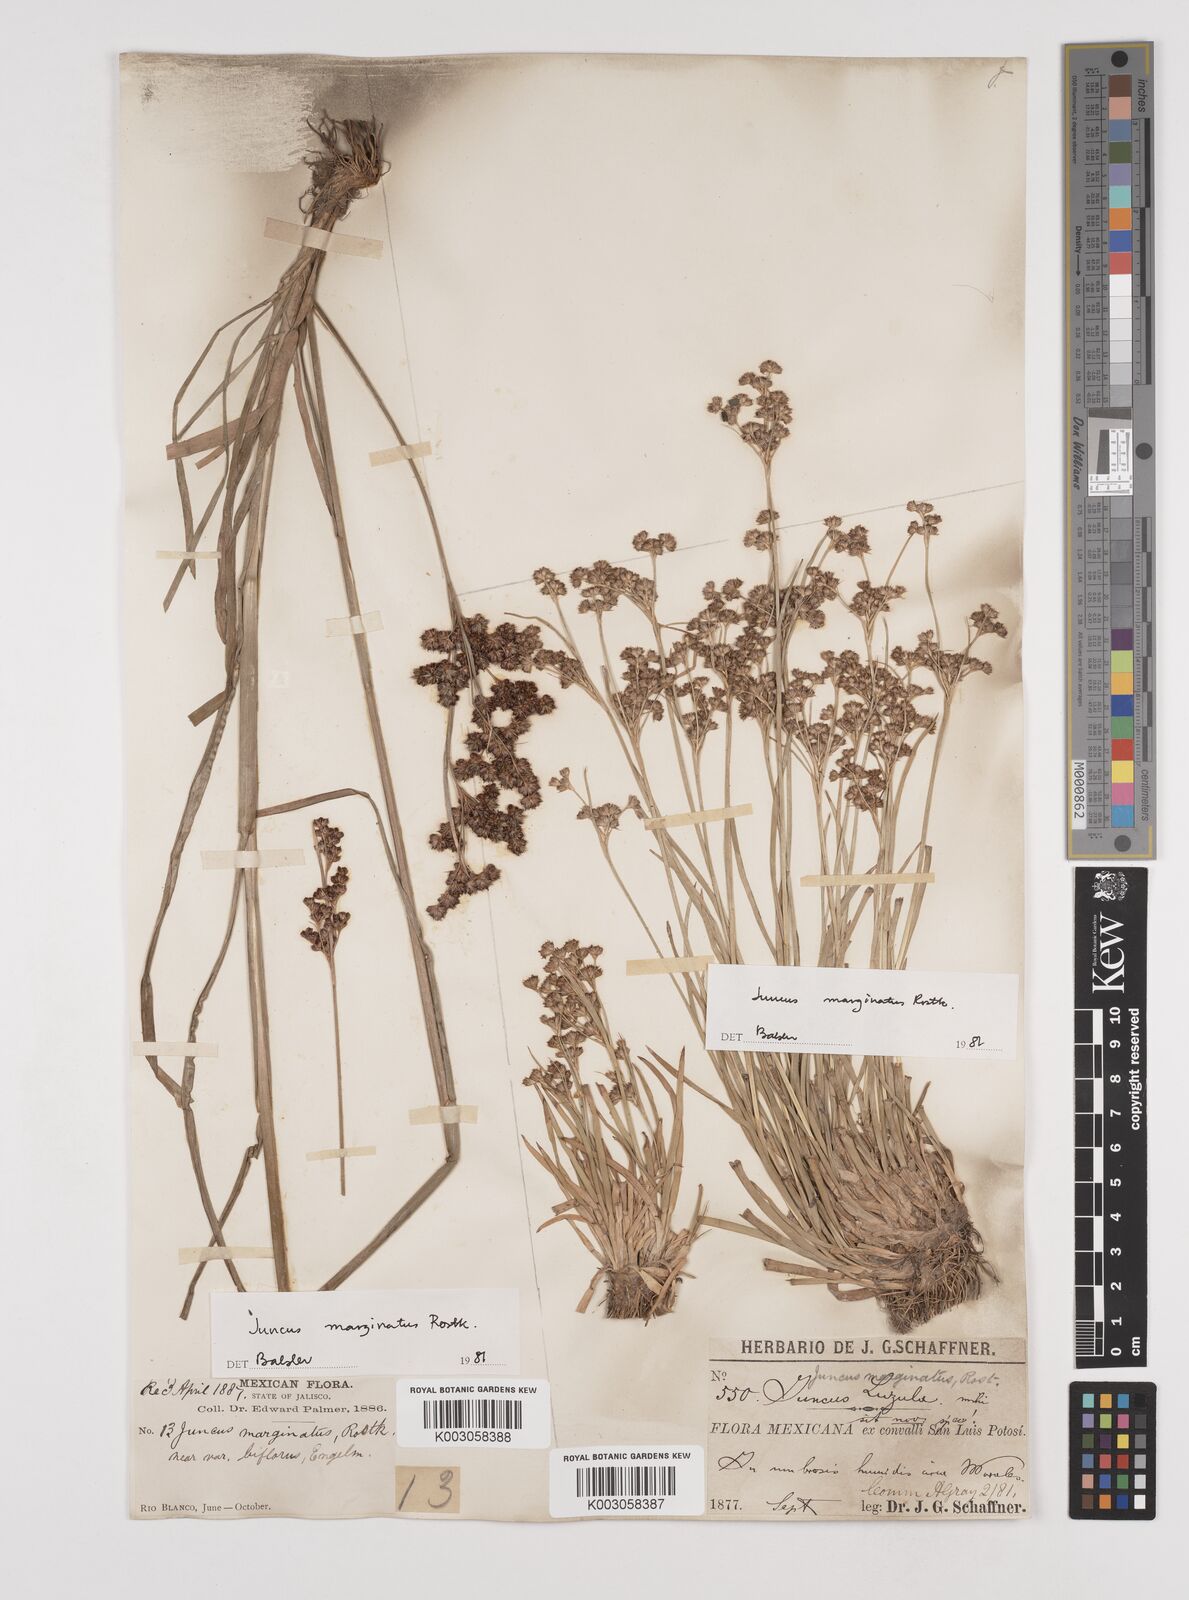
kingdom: Plantae
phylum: Tracheophyta
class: Liliopsida
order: Poales
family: Juncaceae
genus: Juncus
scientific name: Juncus marginatus
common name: Grass-leaf rush
